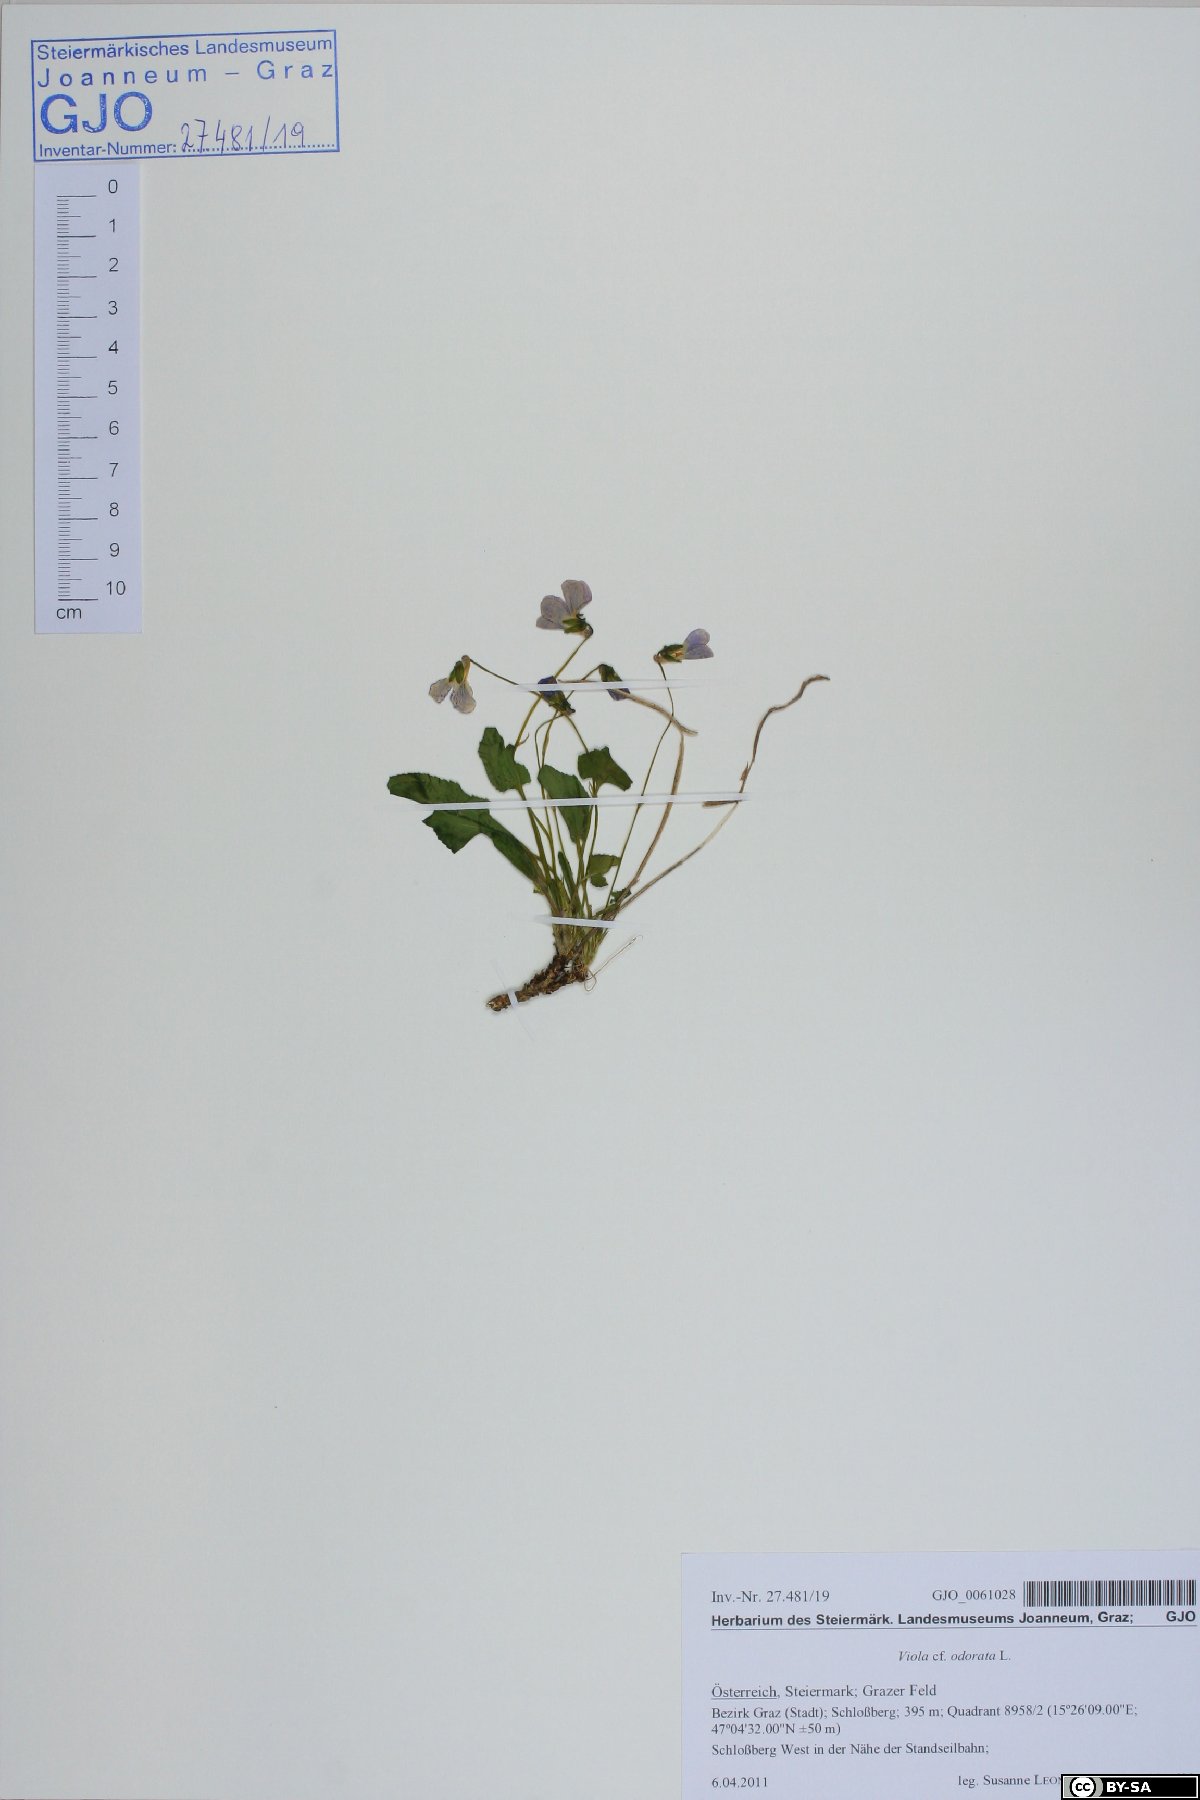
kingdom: Plantae
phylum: Tracheophyta
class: Magnoliopsida
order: Malpighiales
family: Violaceae
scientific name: Violaceae
